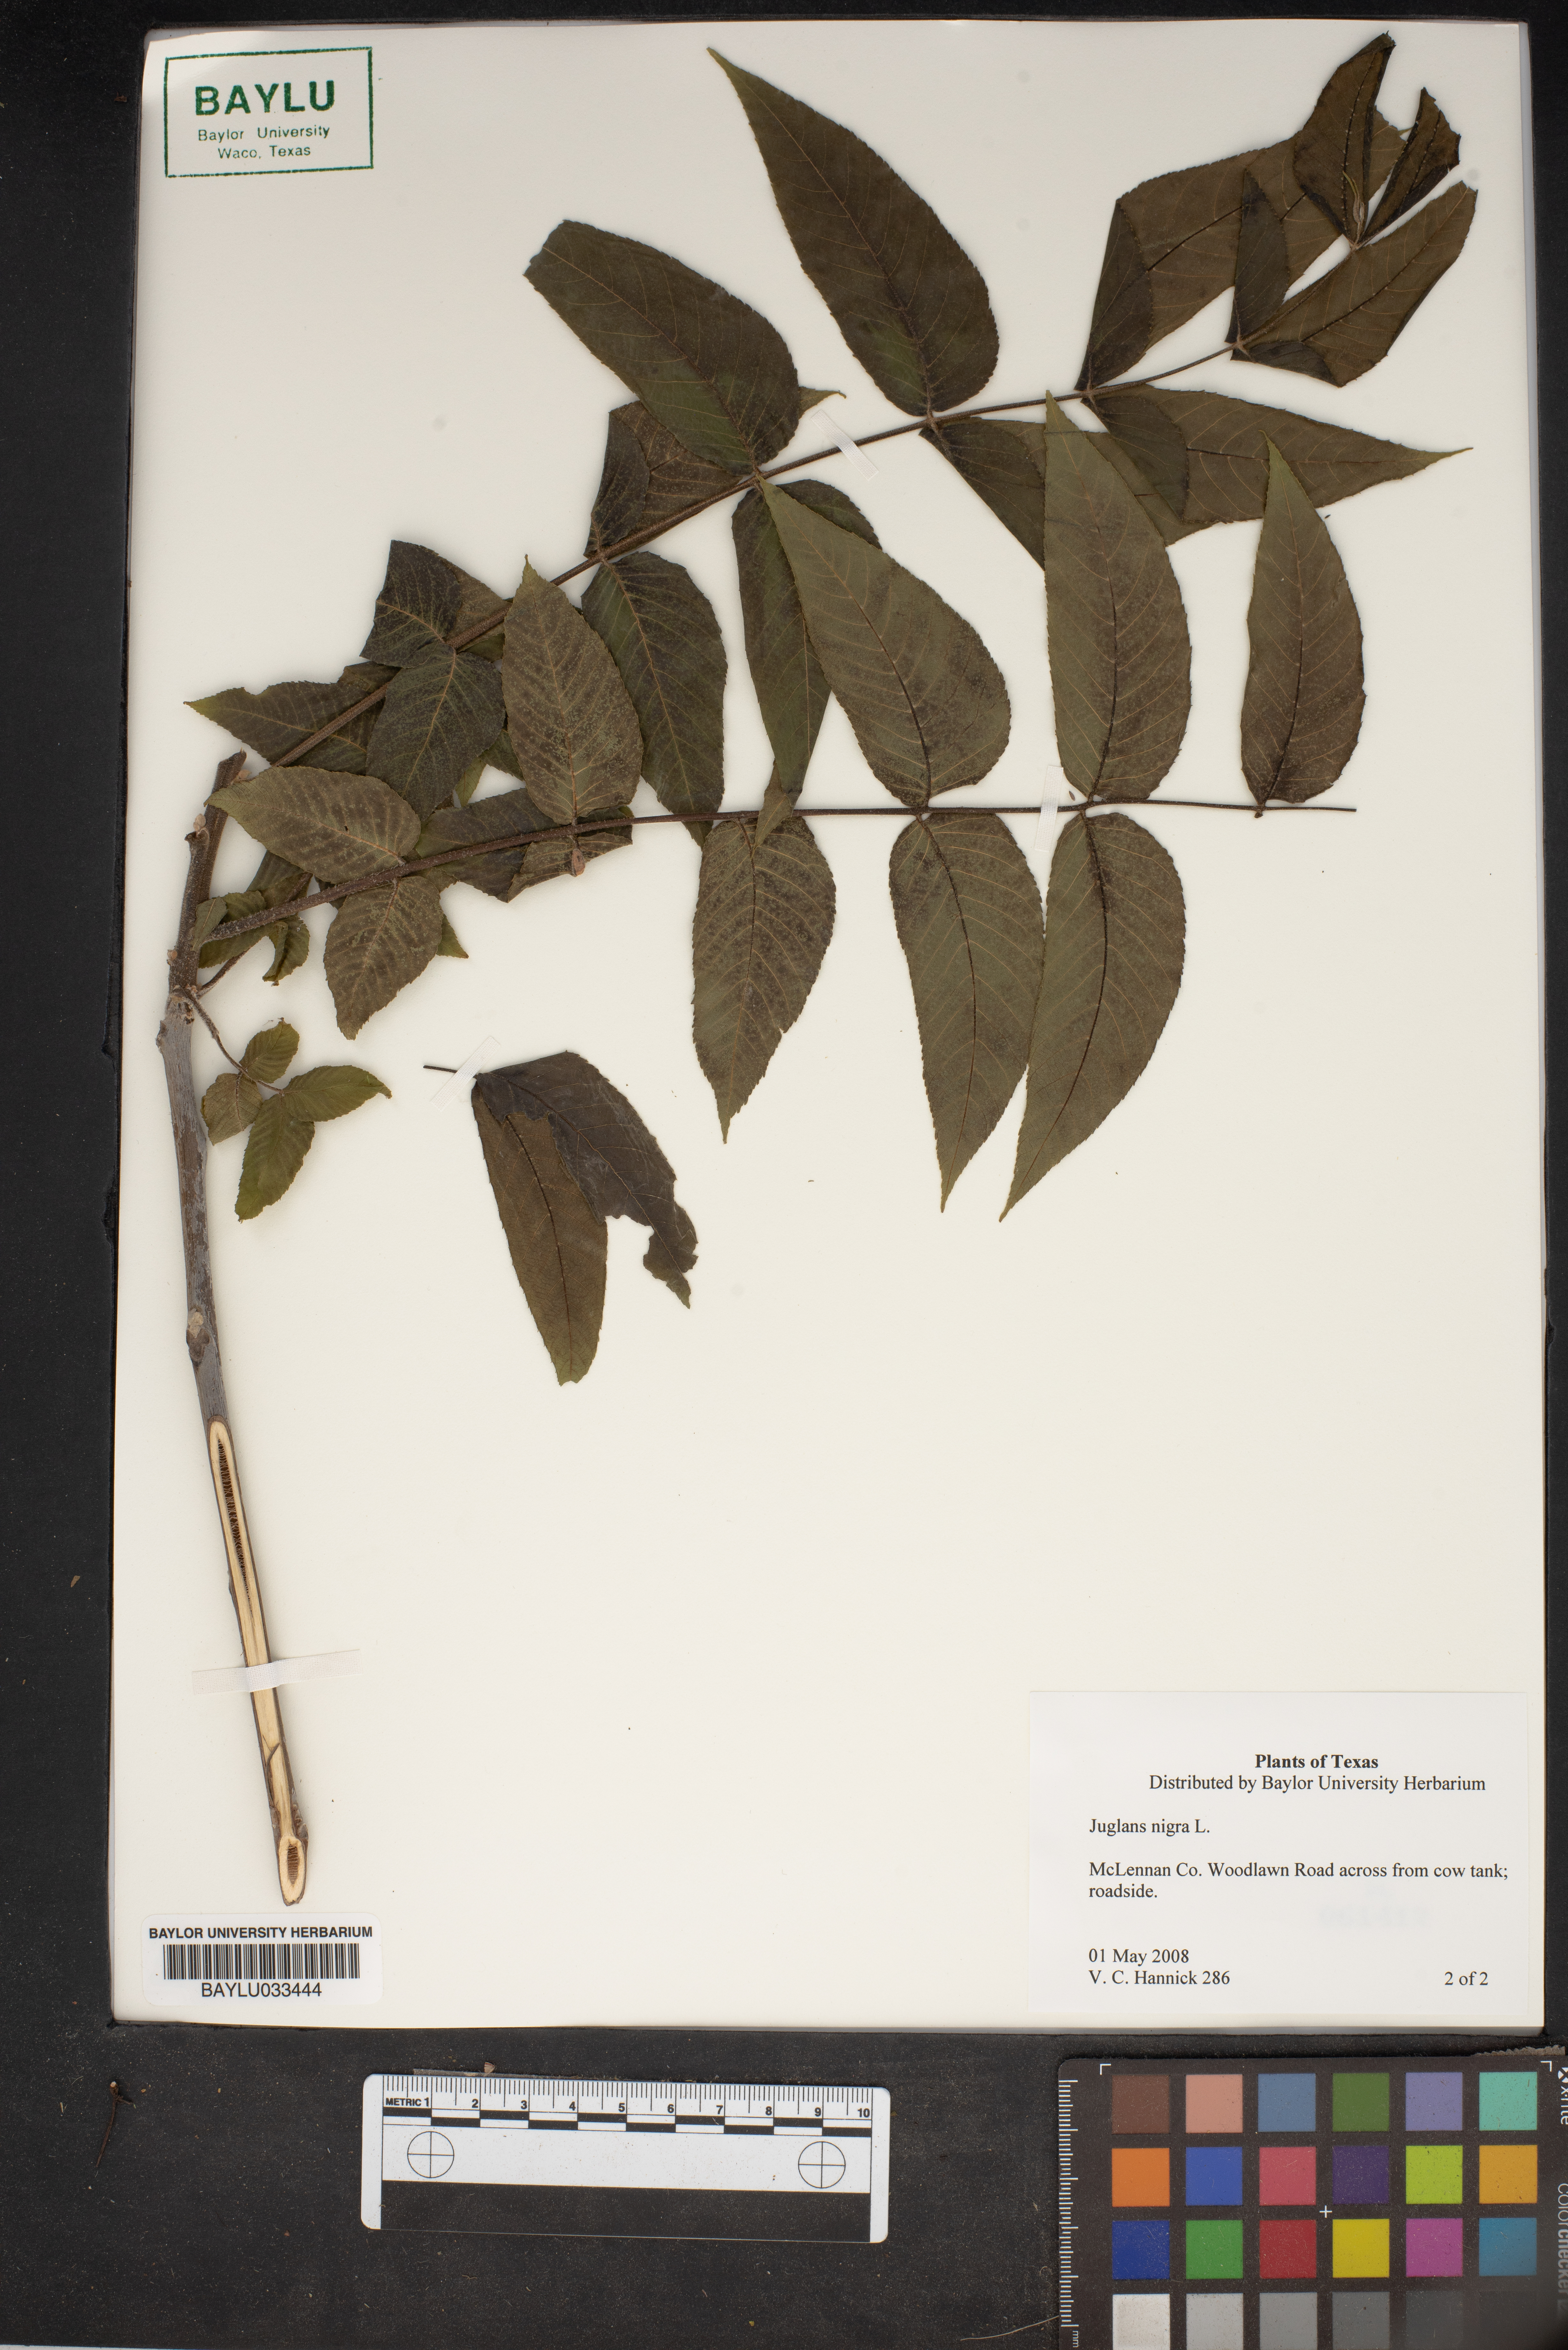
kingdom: Plantae
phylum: Tracheophyta
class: Magnoliopsida
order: Fagales
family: Juglandaceae
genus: Juglans
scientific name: Juglans nigra
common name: Black walnut
